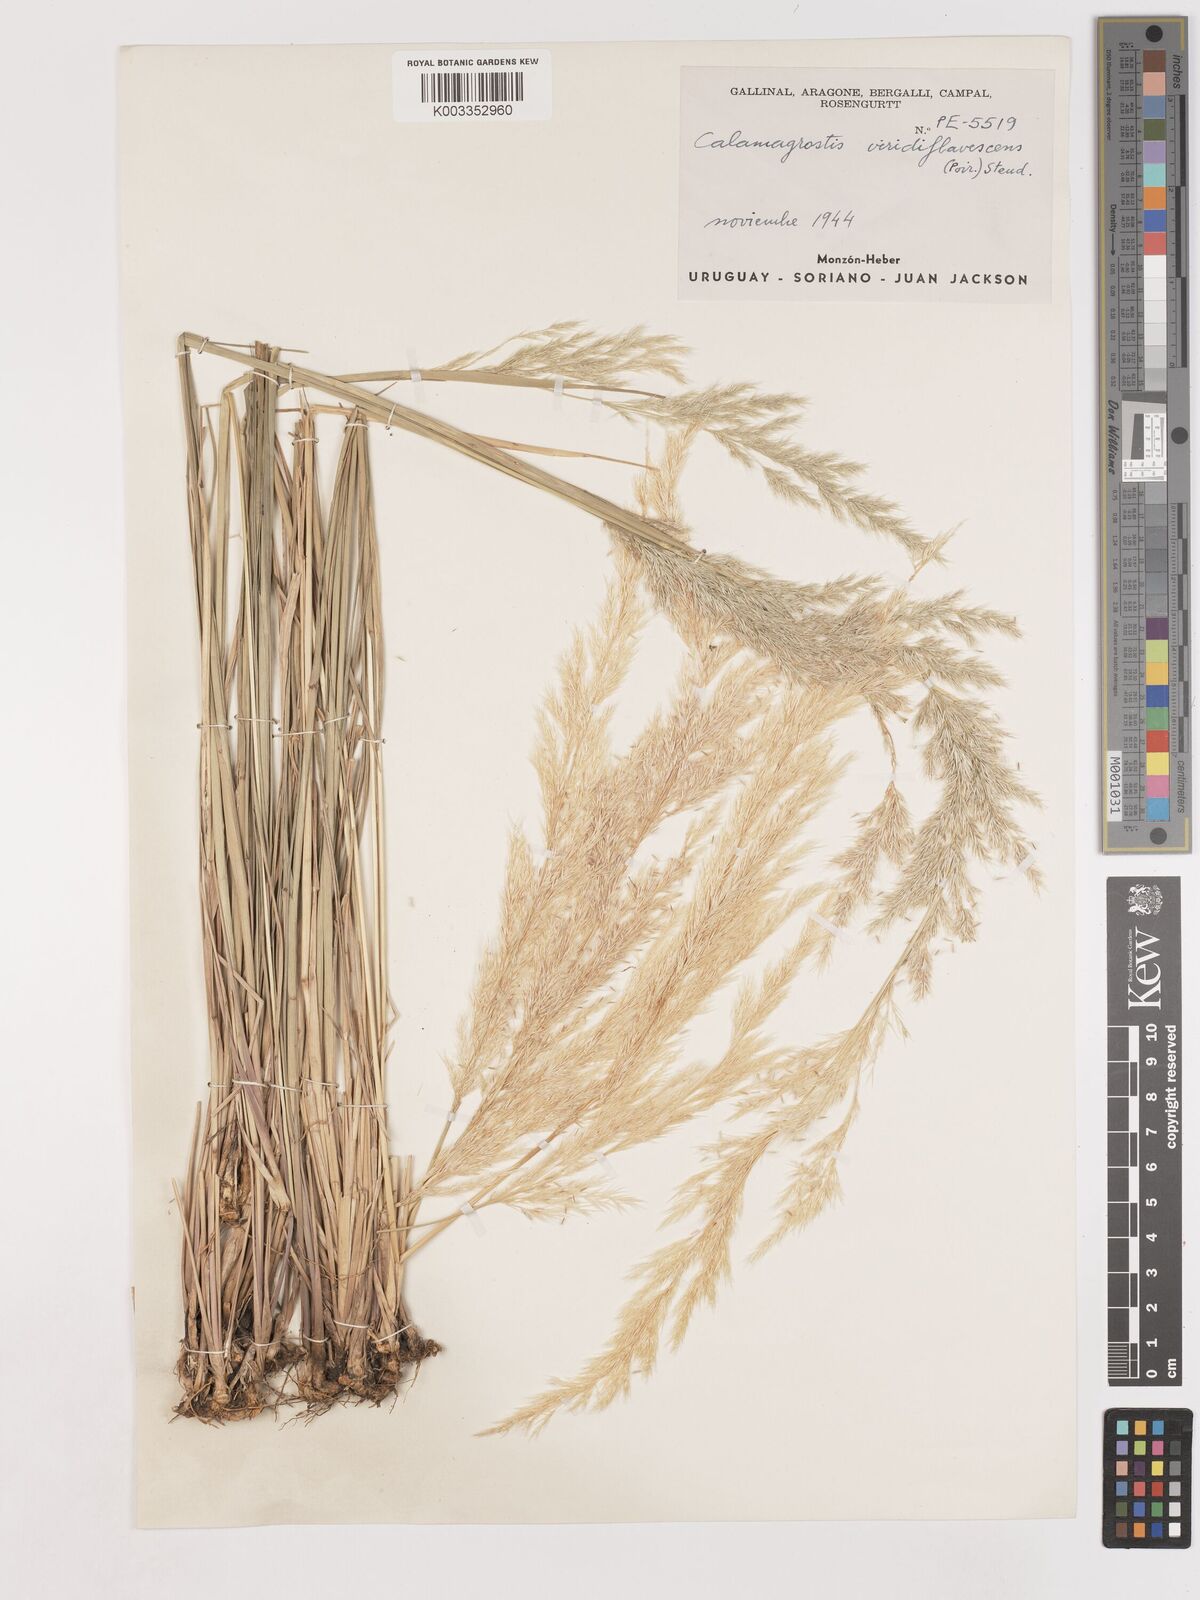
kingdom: Plantae
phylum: Tracheophyta
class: Liliopsida
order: Poales
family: Poaceae
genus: Cinnagrostis
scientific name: Cinnagrostis viridiflavescens
